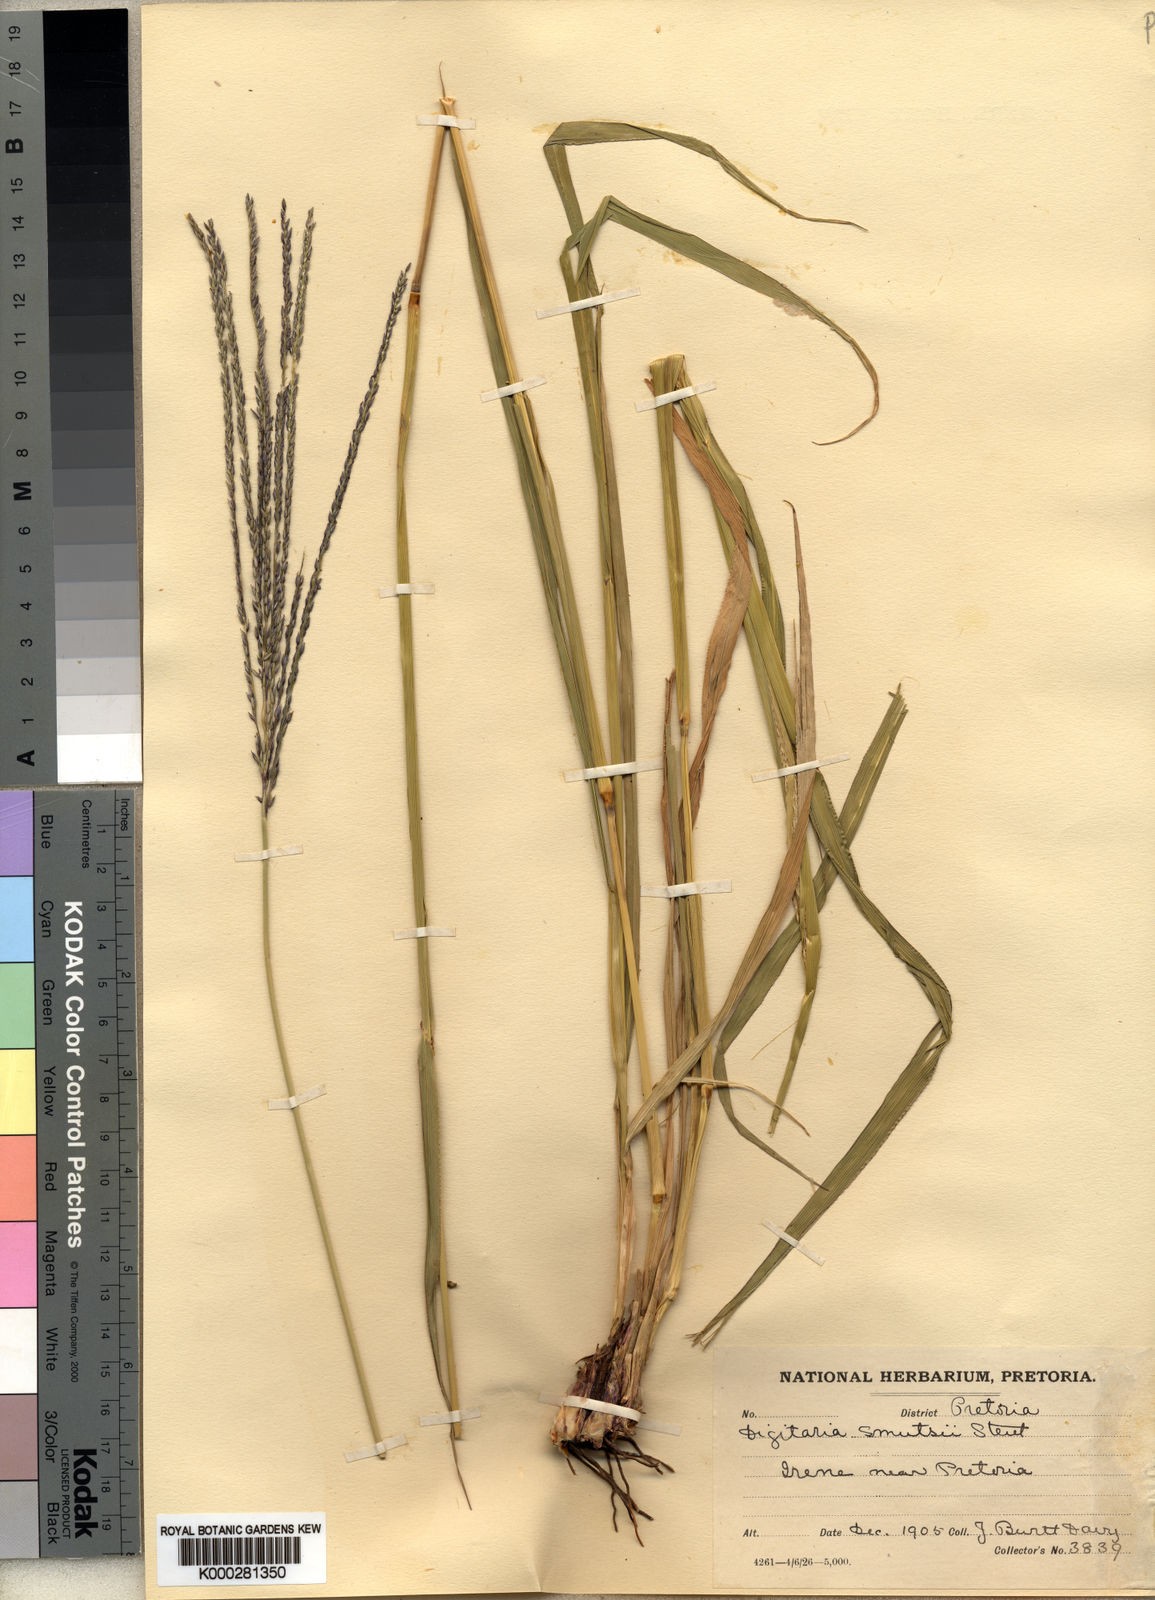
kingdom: Plantae
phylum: Tracheophyta
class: Liliopsida
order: Poales
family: Poaceae
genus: Digitaria
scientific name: Digitaria eriantha
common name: Digitgrass
